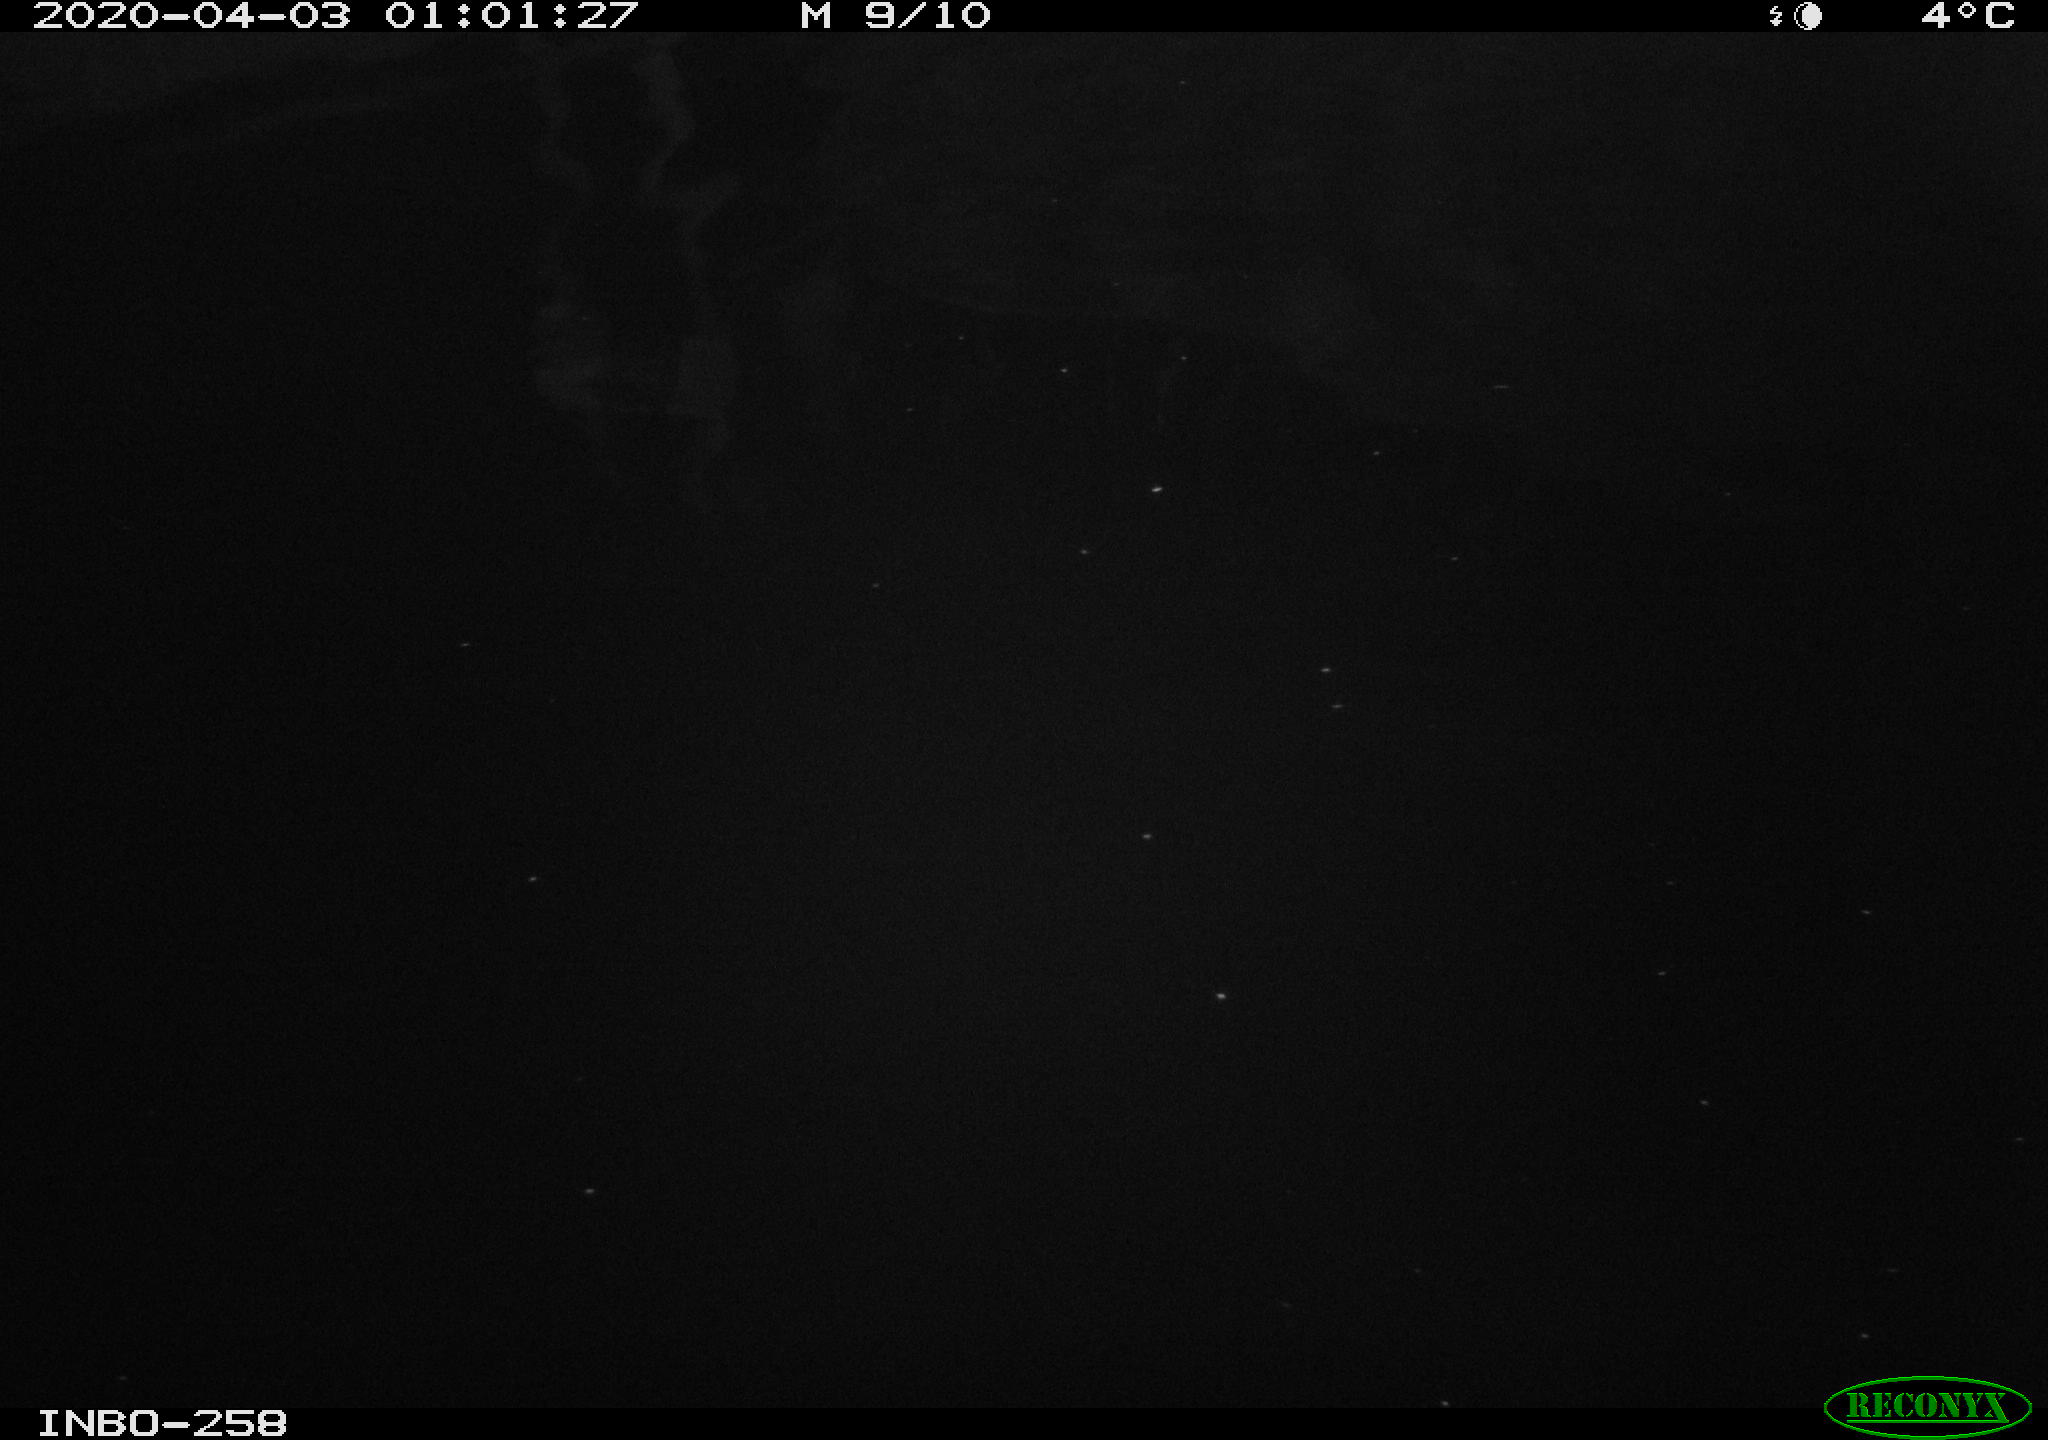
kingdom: Animalia
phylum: Chordata
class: Aves
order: Anseriformes
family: Anatidae
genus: Anas
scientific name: Anas platyrhynchos
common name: Mallard
